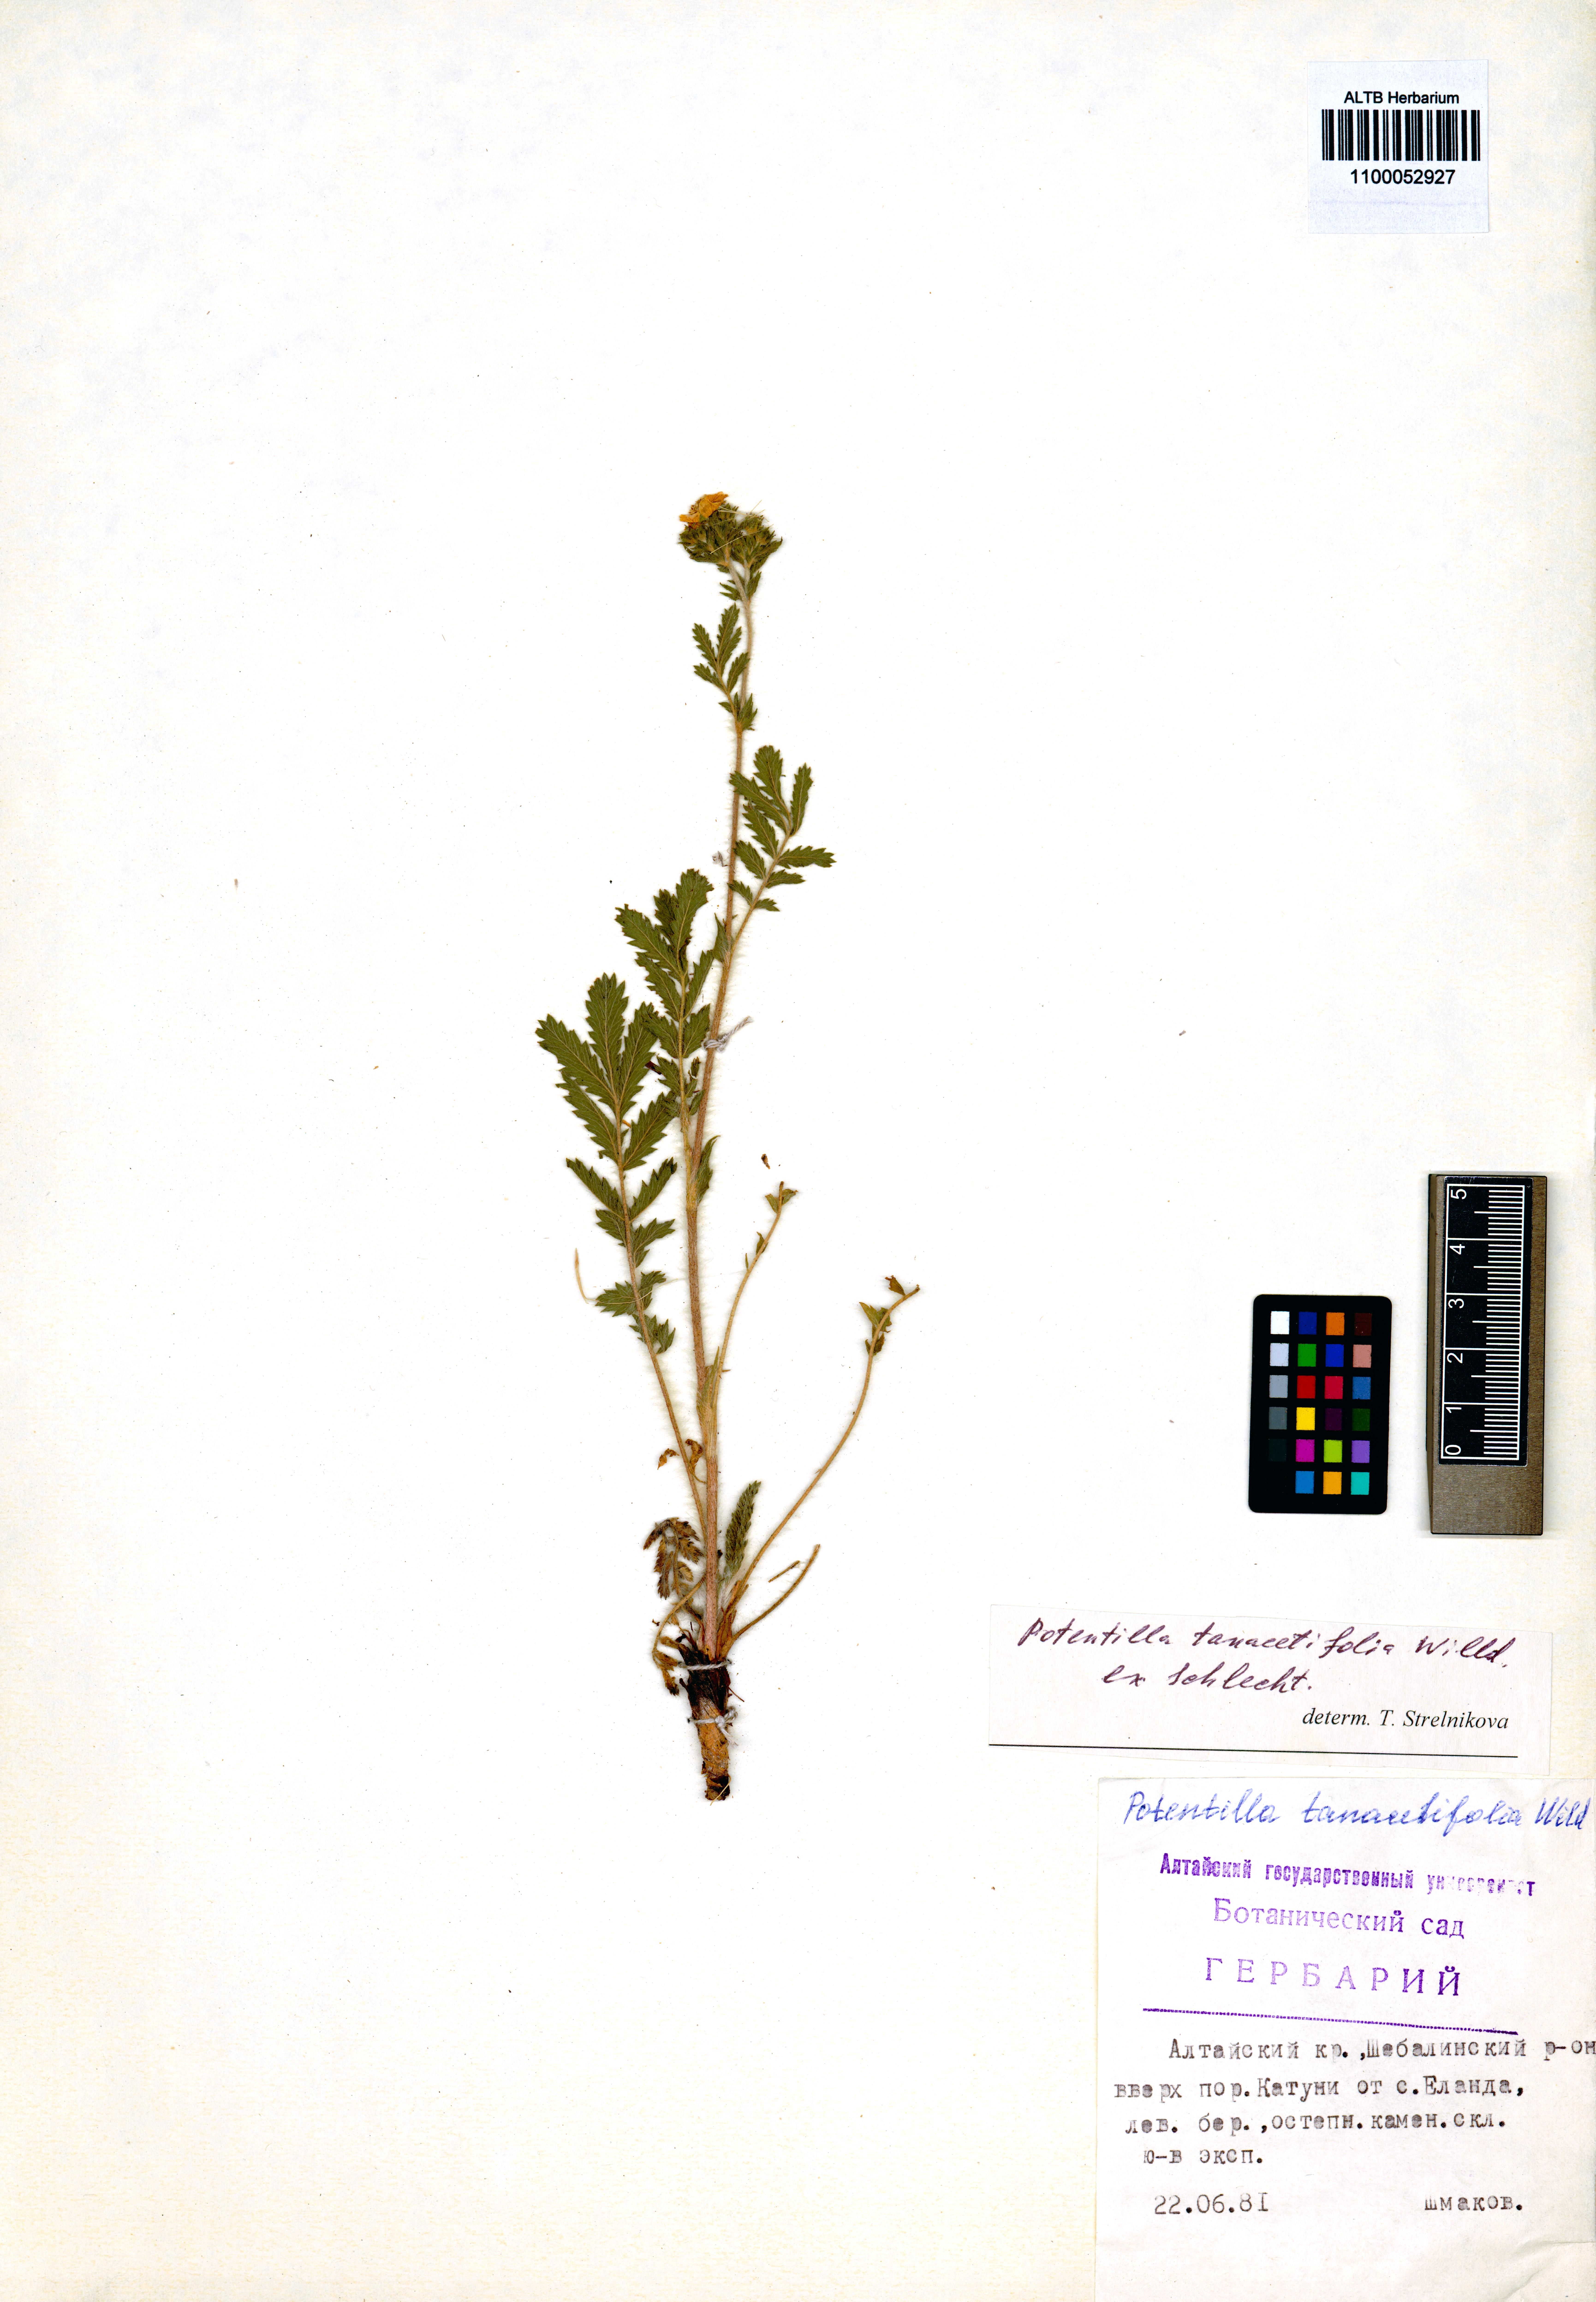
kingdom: Plantae
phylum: Tracheophyta
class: Magnoliopsida
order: Rosales
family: Rosaceae
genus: Potentilla
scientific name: Potentilla tanacetifolia
